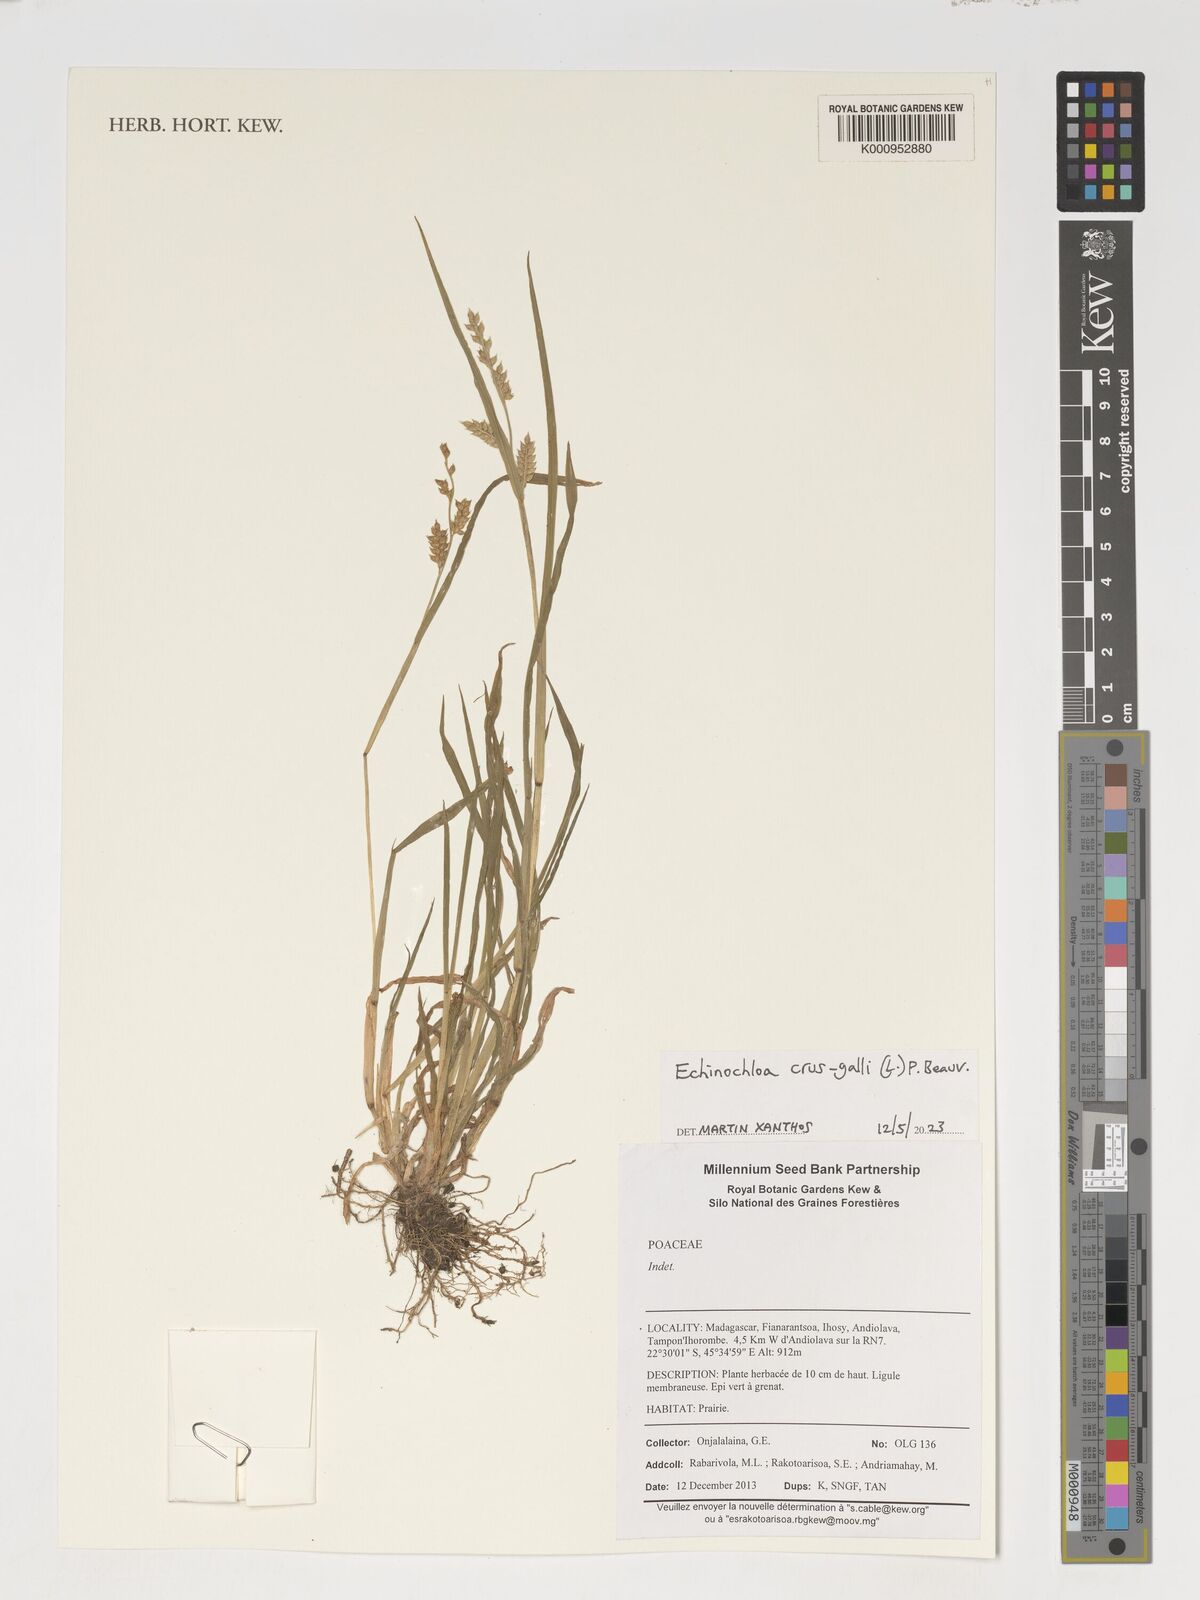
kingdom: Plantae
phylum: Tracheophyta
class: Liliopsida
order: Poales
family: Poaceae
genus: Echinochloa
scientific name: Echinochloa crus-galli
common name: Cockspur
